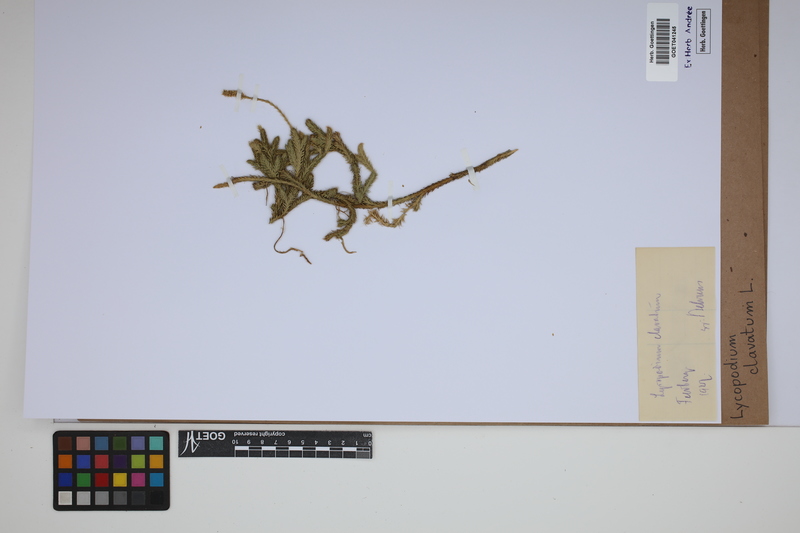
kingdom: Plantae
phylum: Tracheophyta
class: Lycopodiopsida
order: Lycopodiales
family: Lycopodiaceae
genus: Lycopodium
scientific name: Lycopodium clavatum
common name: Stag's-horn clubmoss
